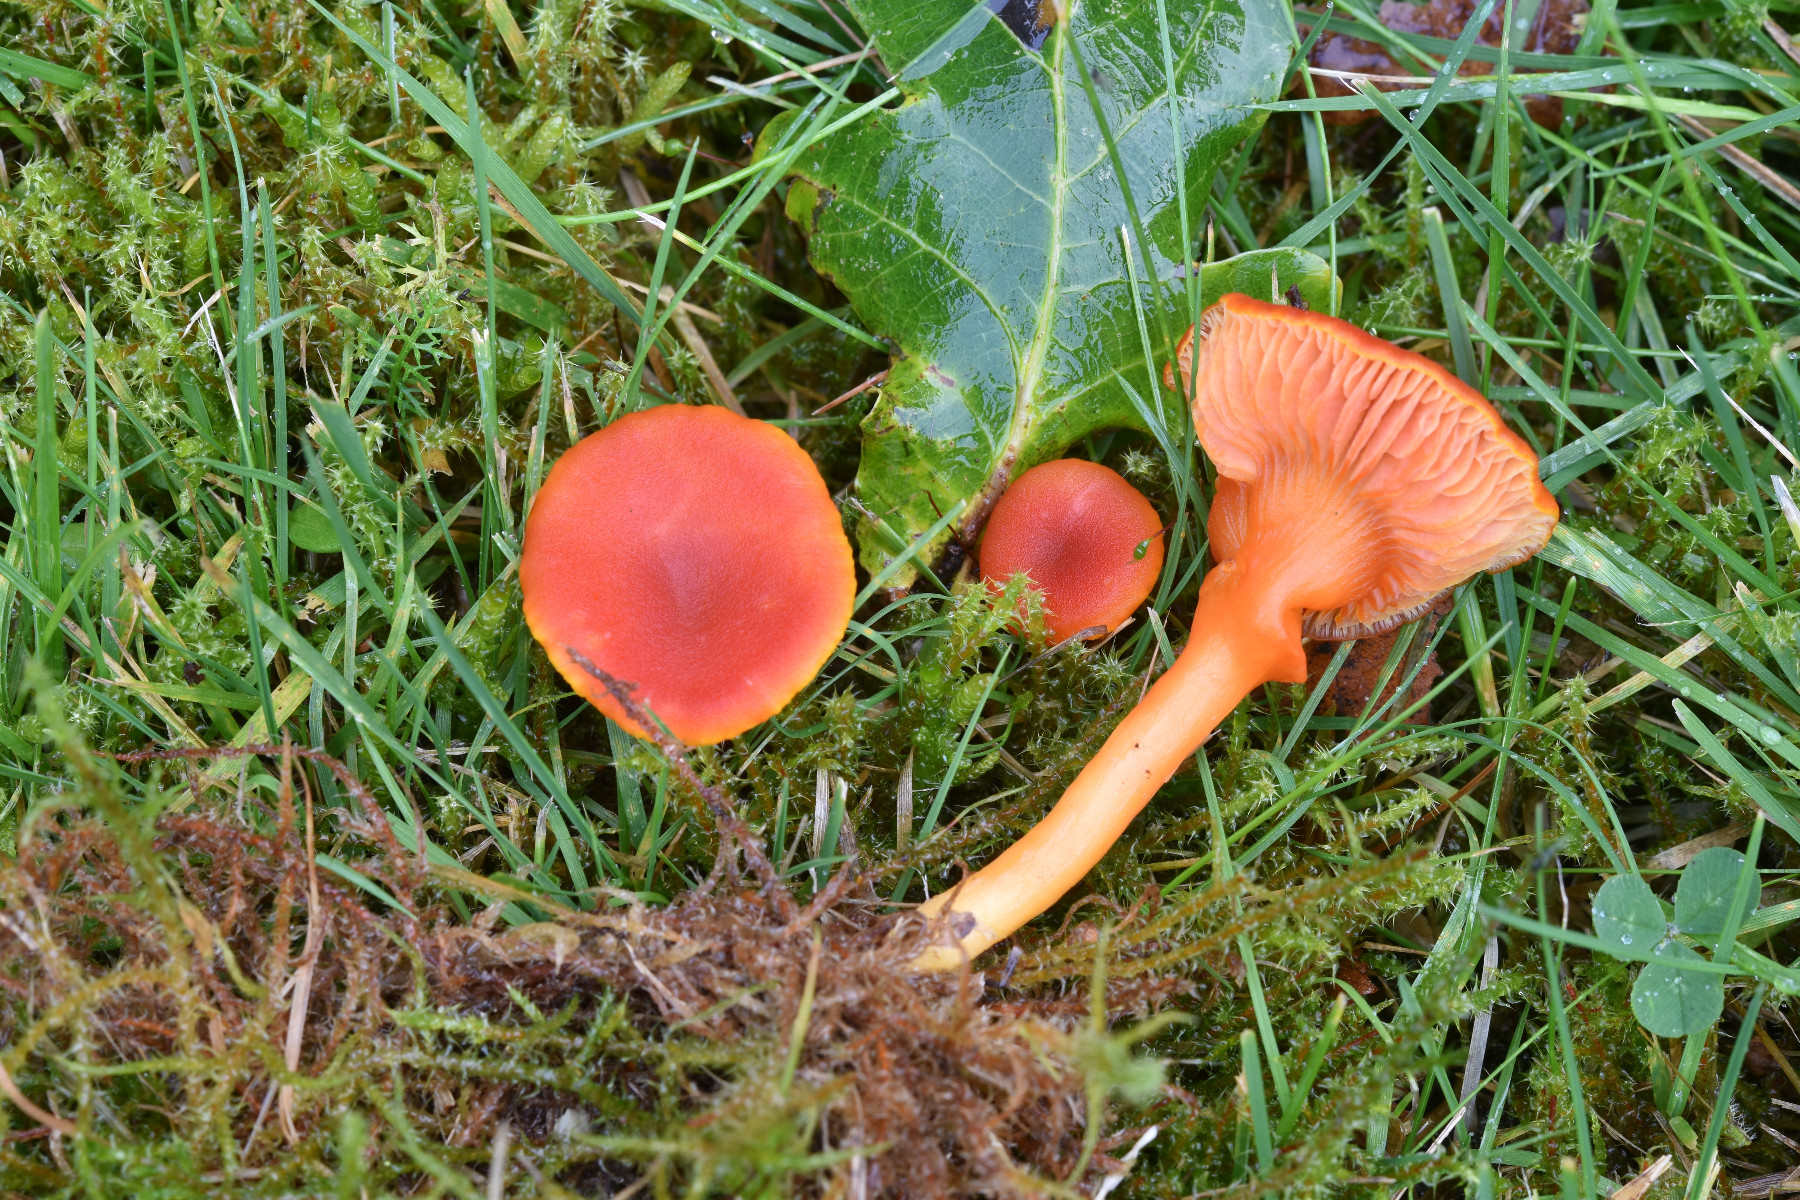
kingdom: Fungi
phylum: Basidiomycota
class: Agaricomycetes
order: Agaricales
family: Hygrophoraceae
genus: Hygrocybe
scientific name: Hygrocybe miniata
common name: mønje-vokshat
